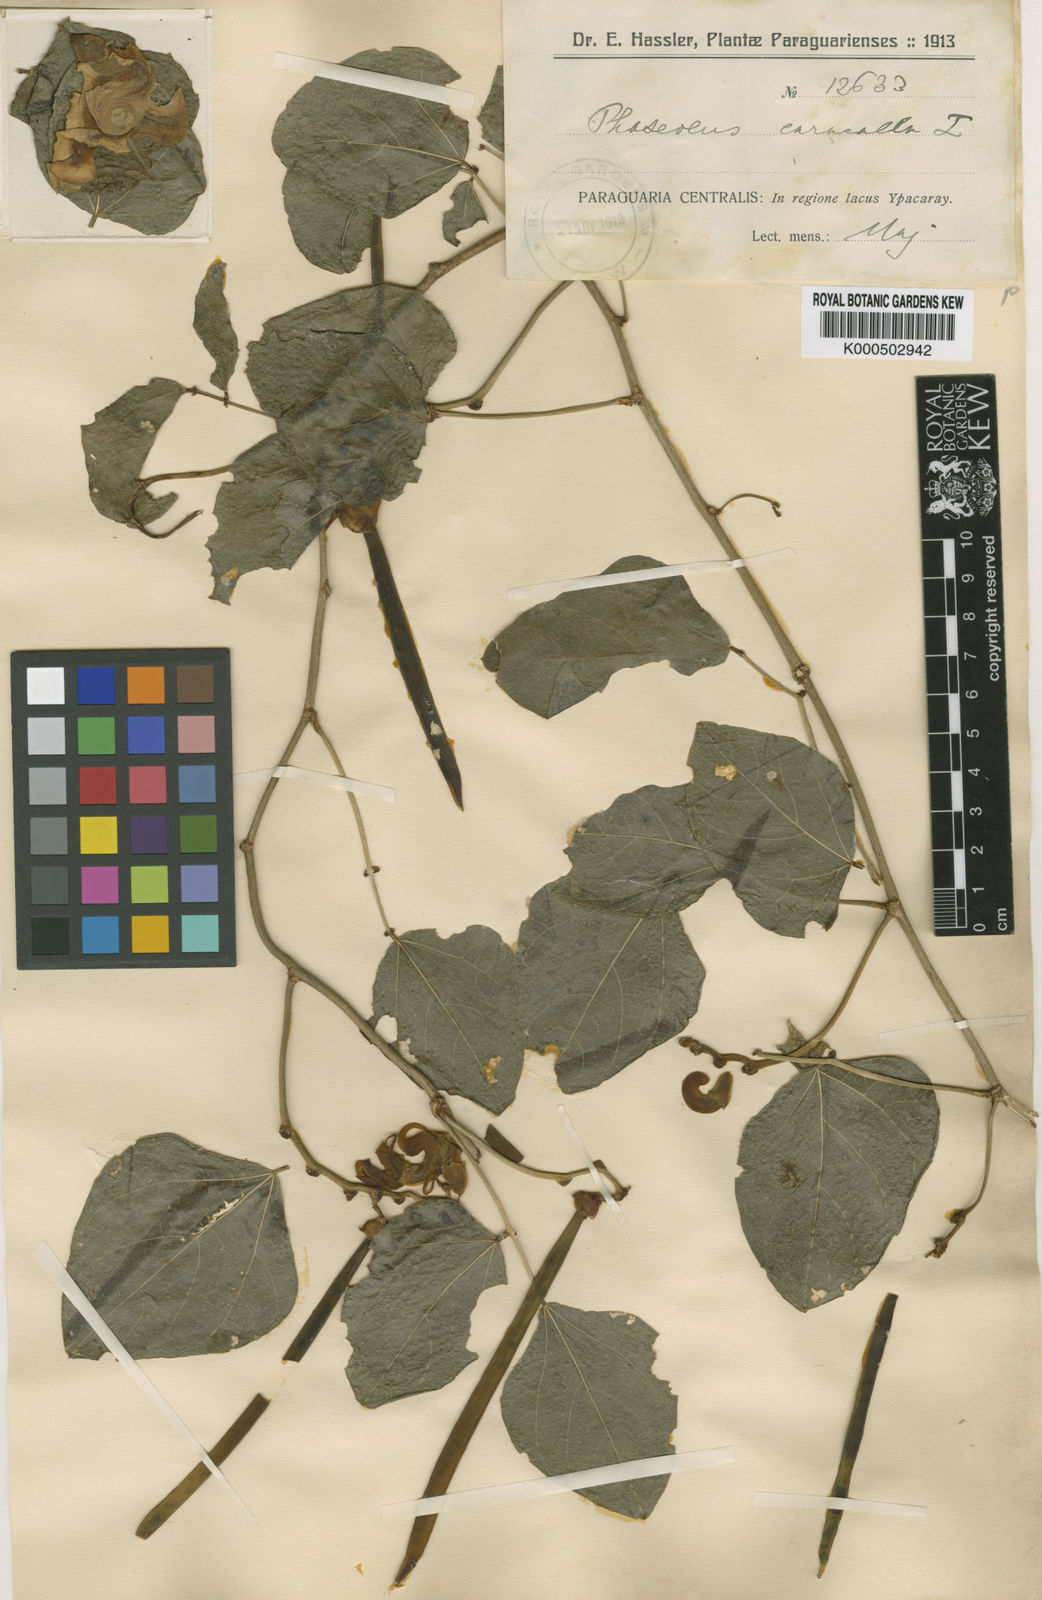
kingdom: Plantae
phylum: Tracheophyta
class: Magnoliopsida
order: Fabales
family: Fabaceae
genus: Cochliasanthus
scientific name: Cochliasanthus caracalla
